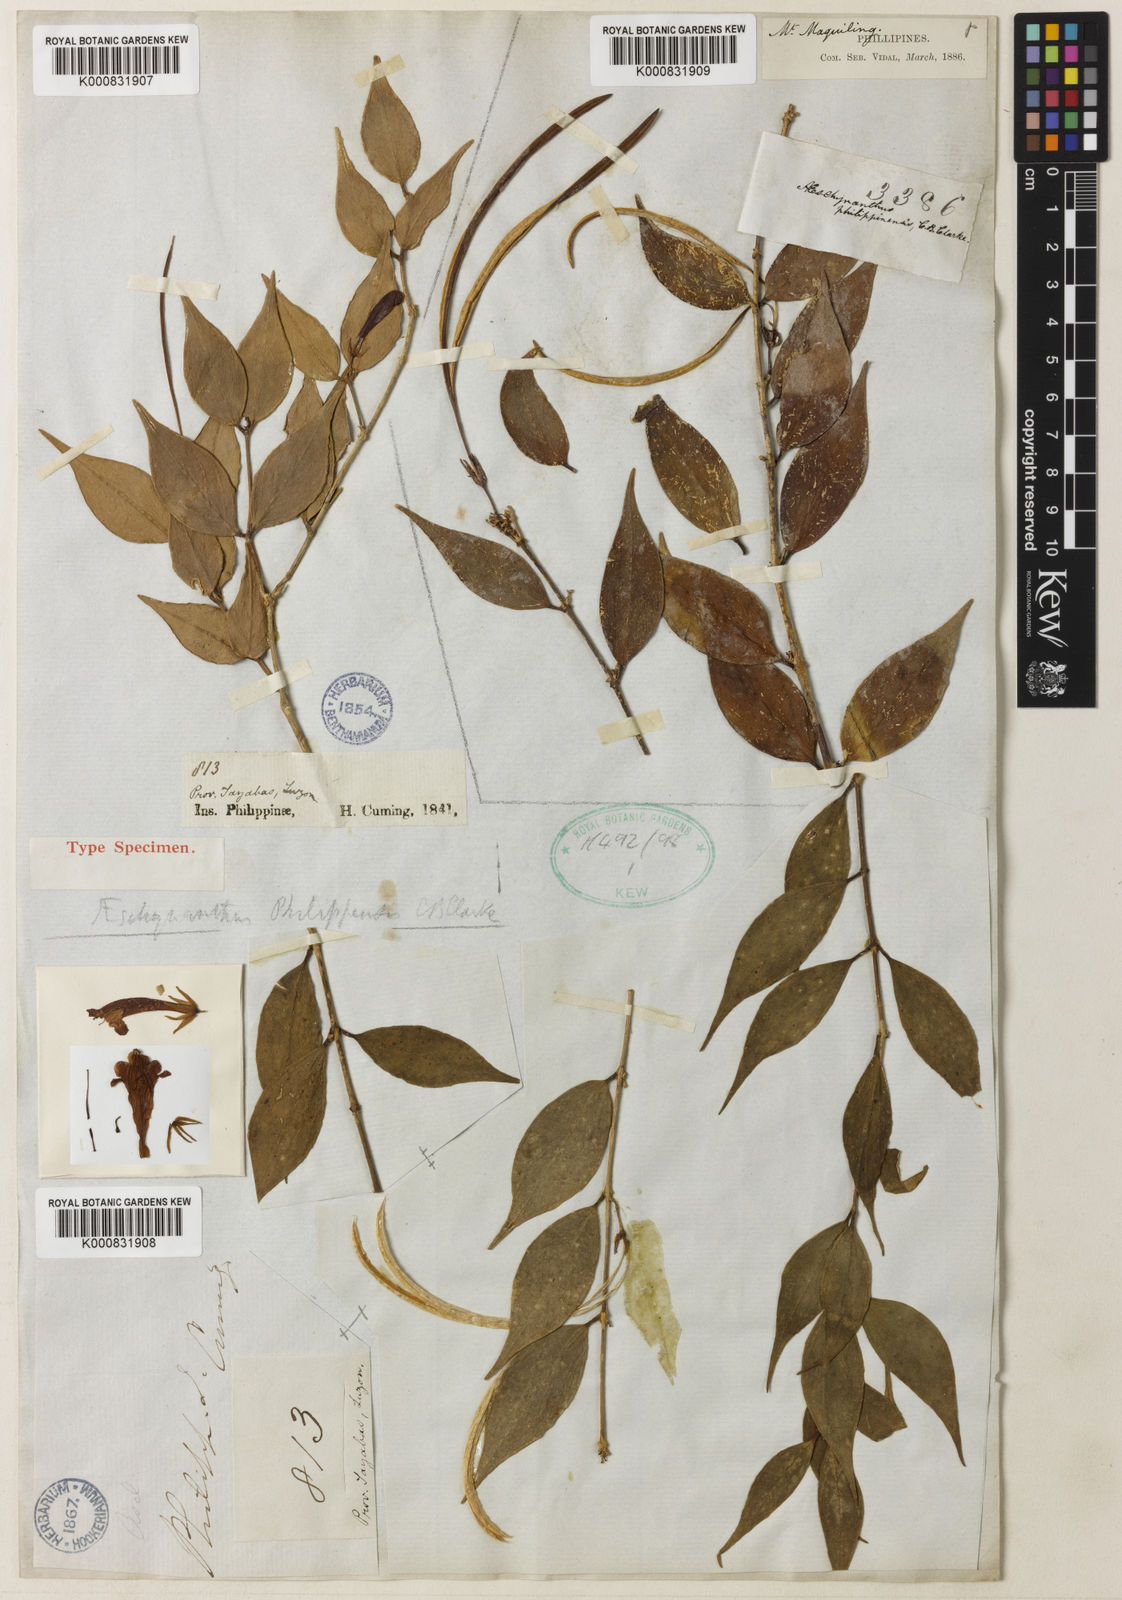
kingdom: Plantae
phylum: Tracheophyta
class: Magnoliopsida
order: Lamiales
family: Gesneriaceae
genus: Aeschynanthus
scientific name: Aeschynanthus philippinensis
